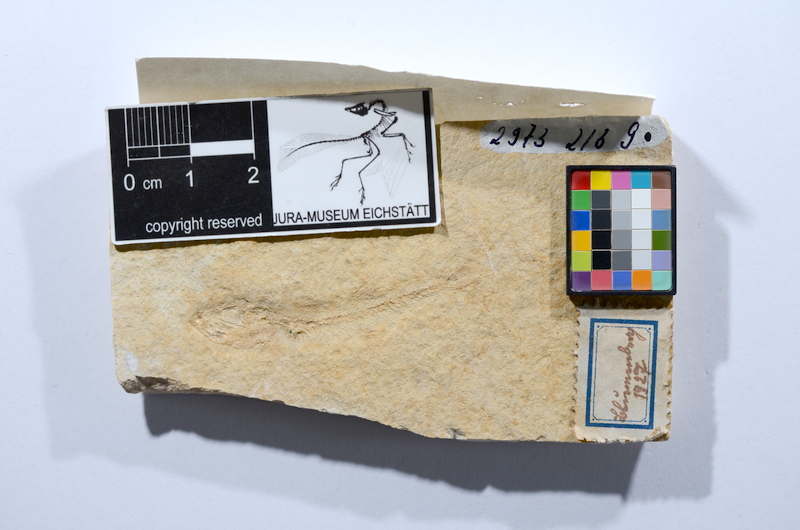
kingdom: Animalia
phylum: Chordata
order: Salmoniformes
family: Orthogonikleithridae
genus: Leptolepides
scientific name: Leptolepides sprattiformis
